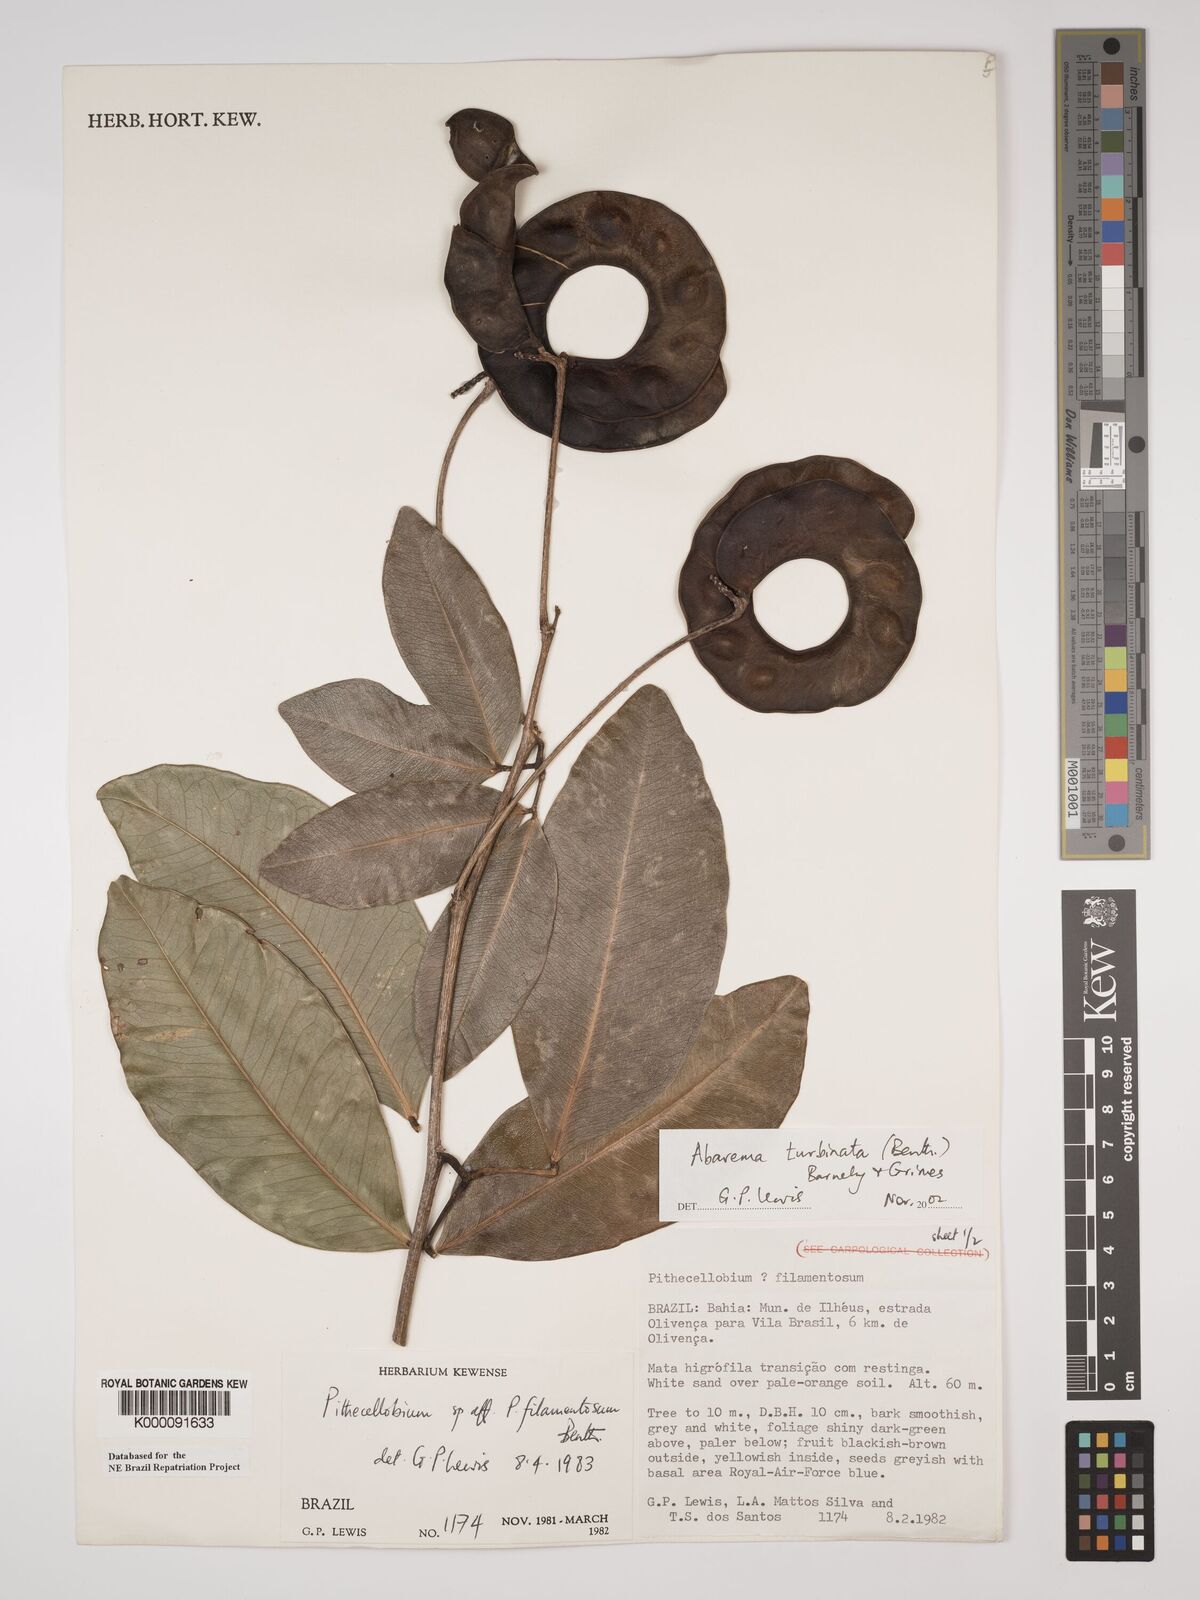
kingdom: Plantae
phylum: Tracheophyta
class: Magnoliopsida
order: Fabales
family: Fabaceae
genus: Jupunba
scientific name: Jupunba turbinata
